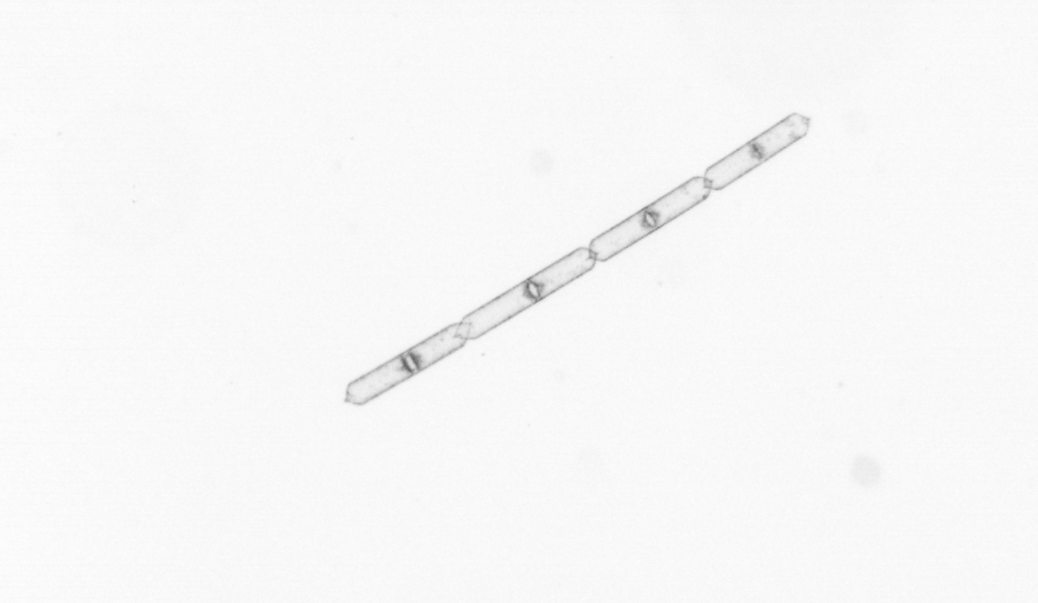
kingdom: Chromista
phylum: Ochrophyta
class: Bacillariophyceae
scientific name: Bacillariophyceae
